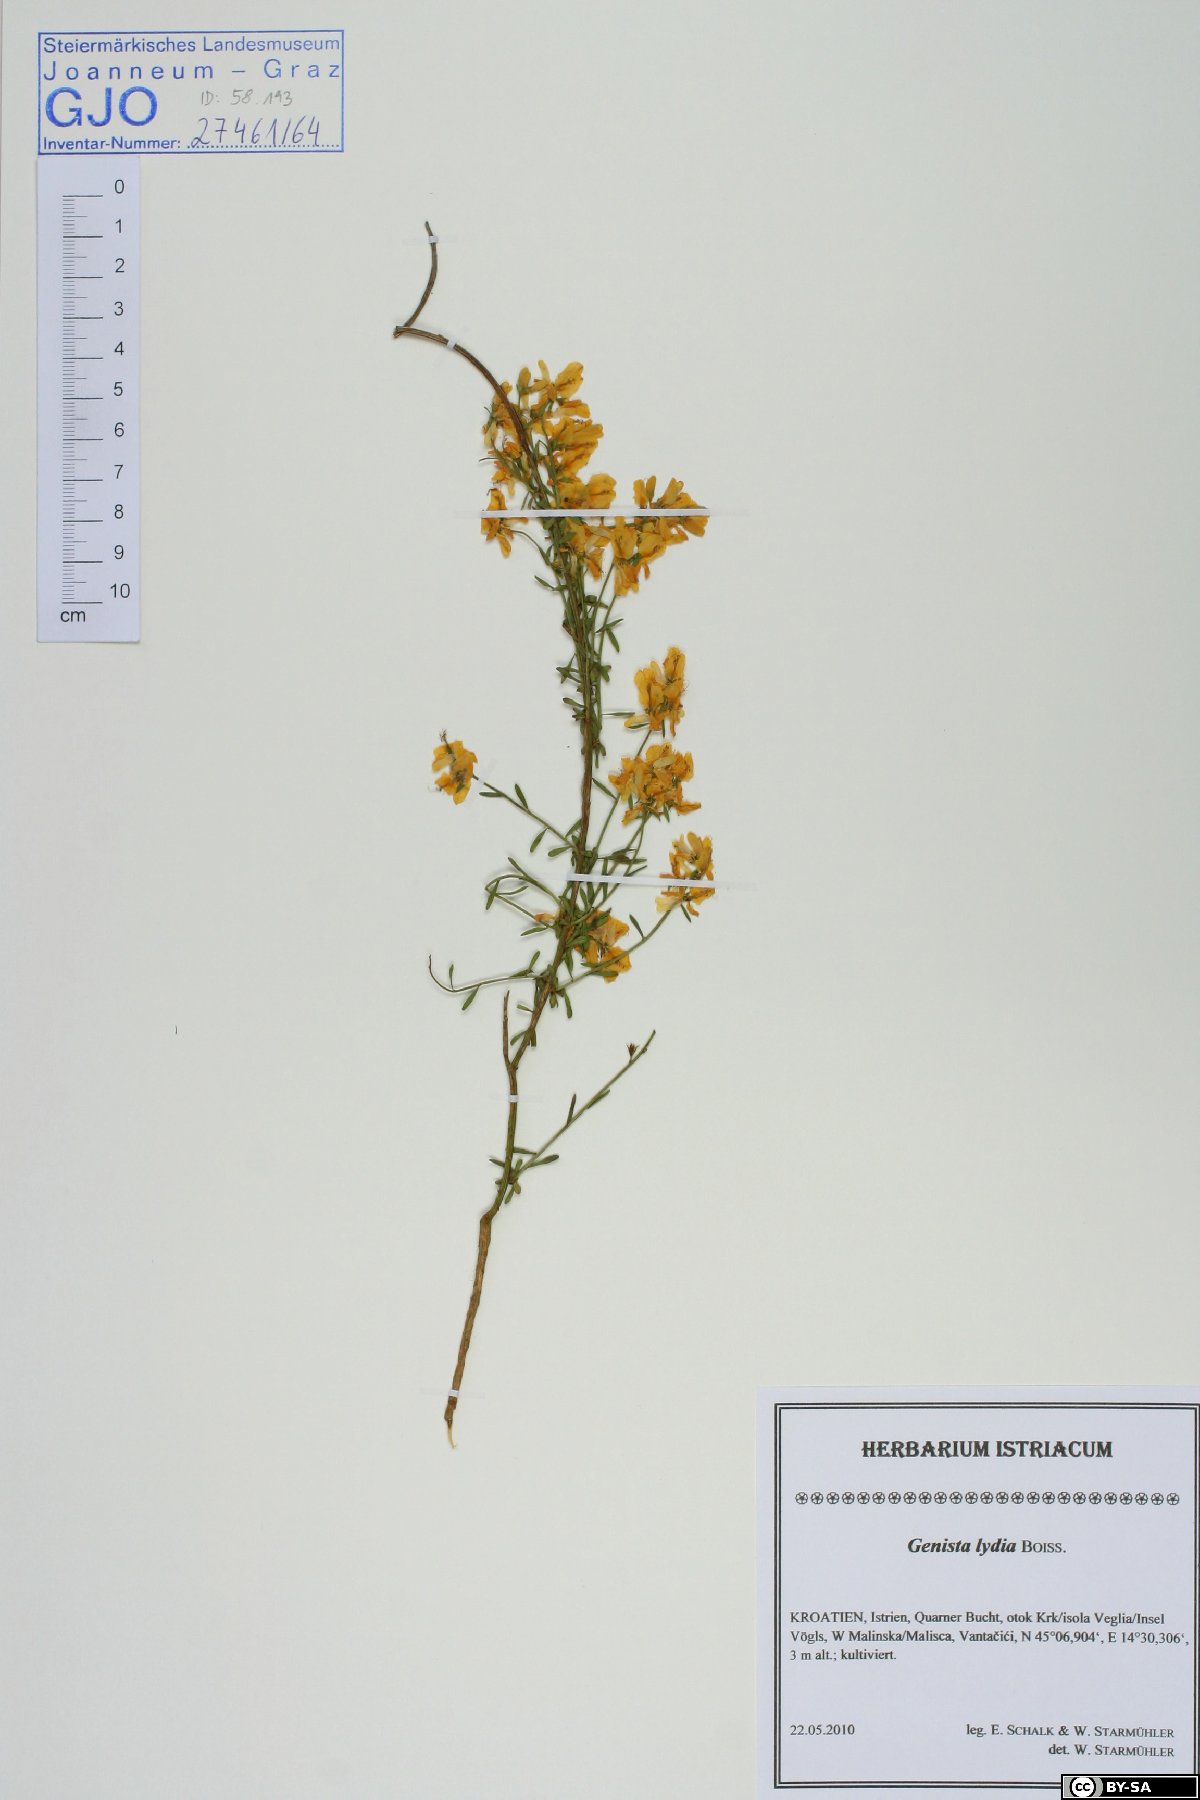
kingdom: Plantae
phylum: Tracheophyta
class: Magnoliopsida
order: Fabales
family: Fabaceae
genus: Genista
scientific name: Genista lydia
